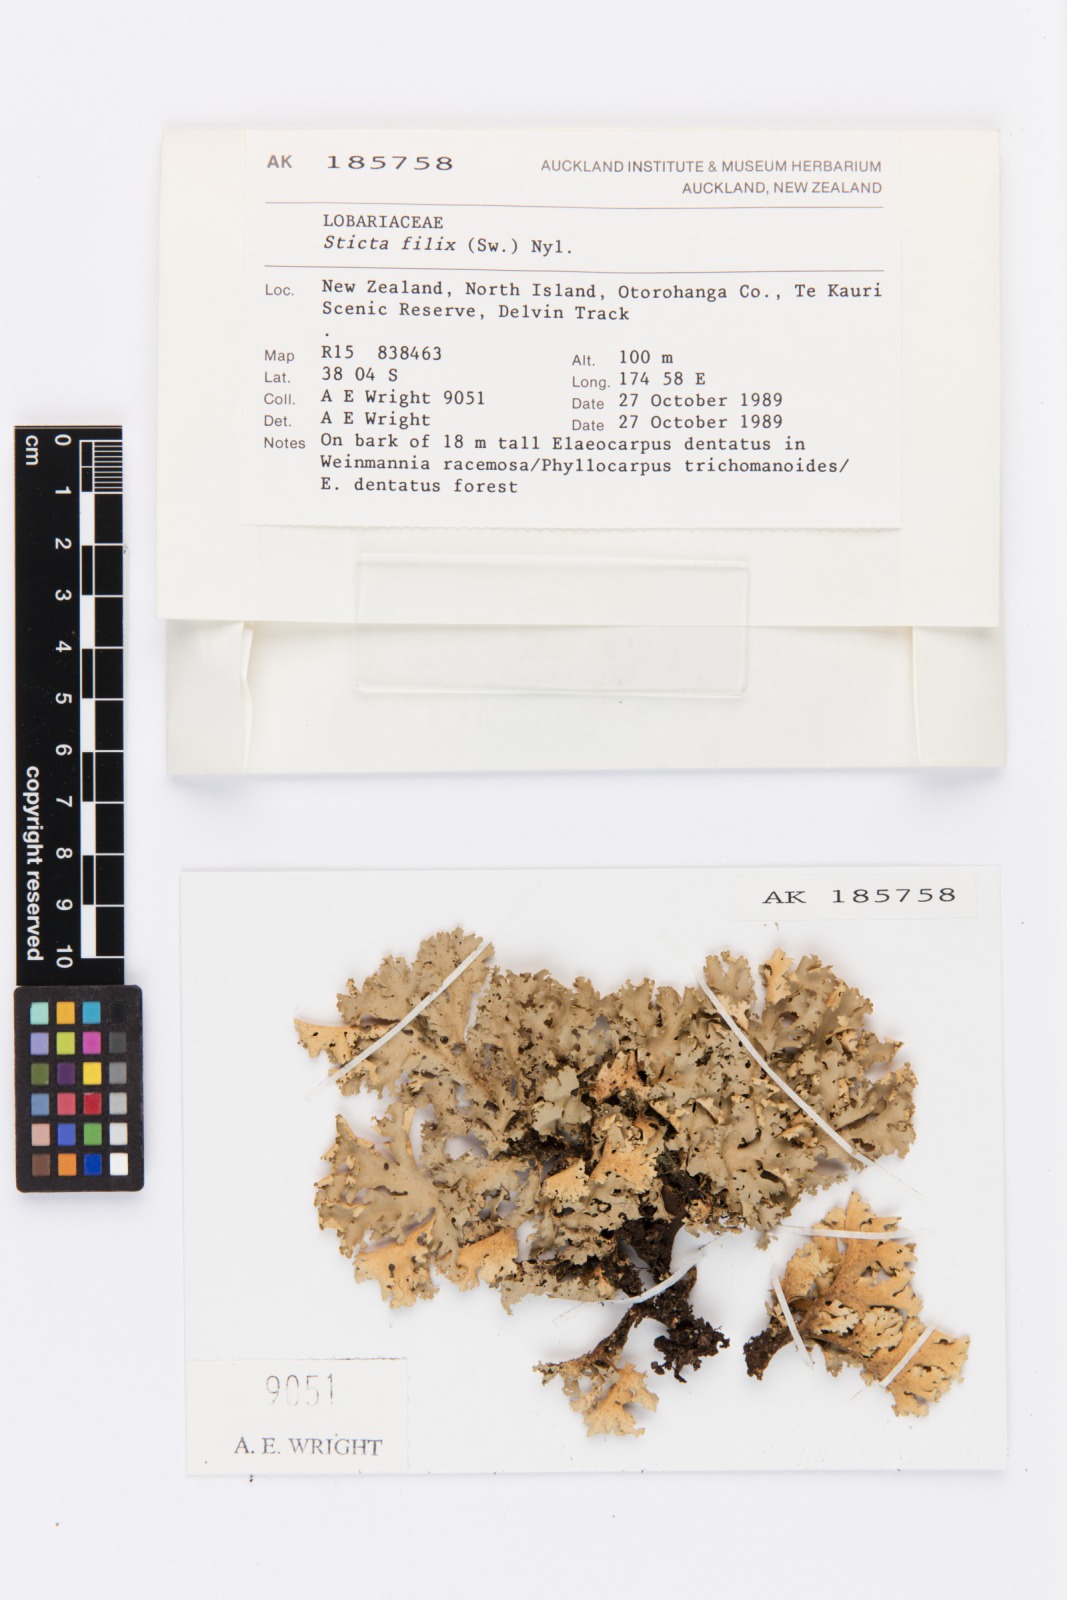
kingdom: Fungi
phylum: Ascomycota
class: Lecanoromycetes
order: Peltigerales
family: Lobariaceae
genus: Sticta
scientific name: Sticta filix
